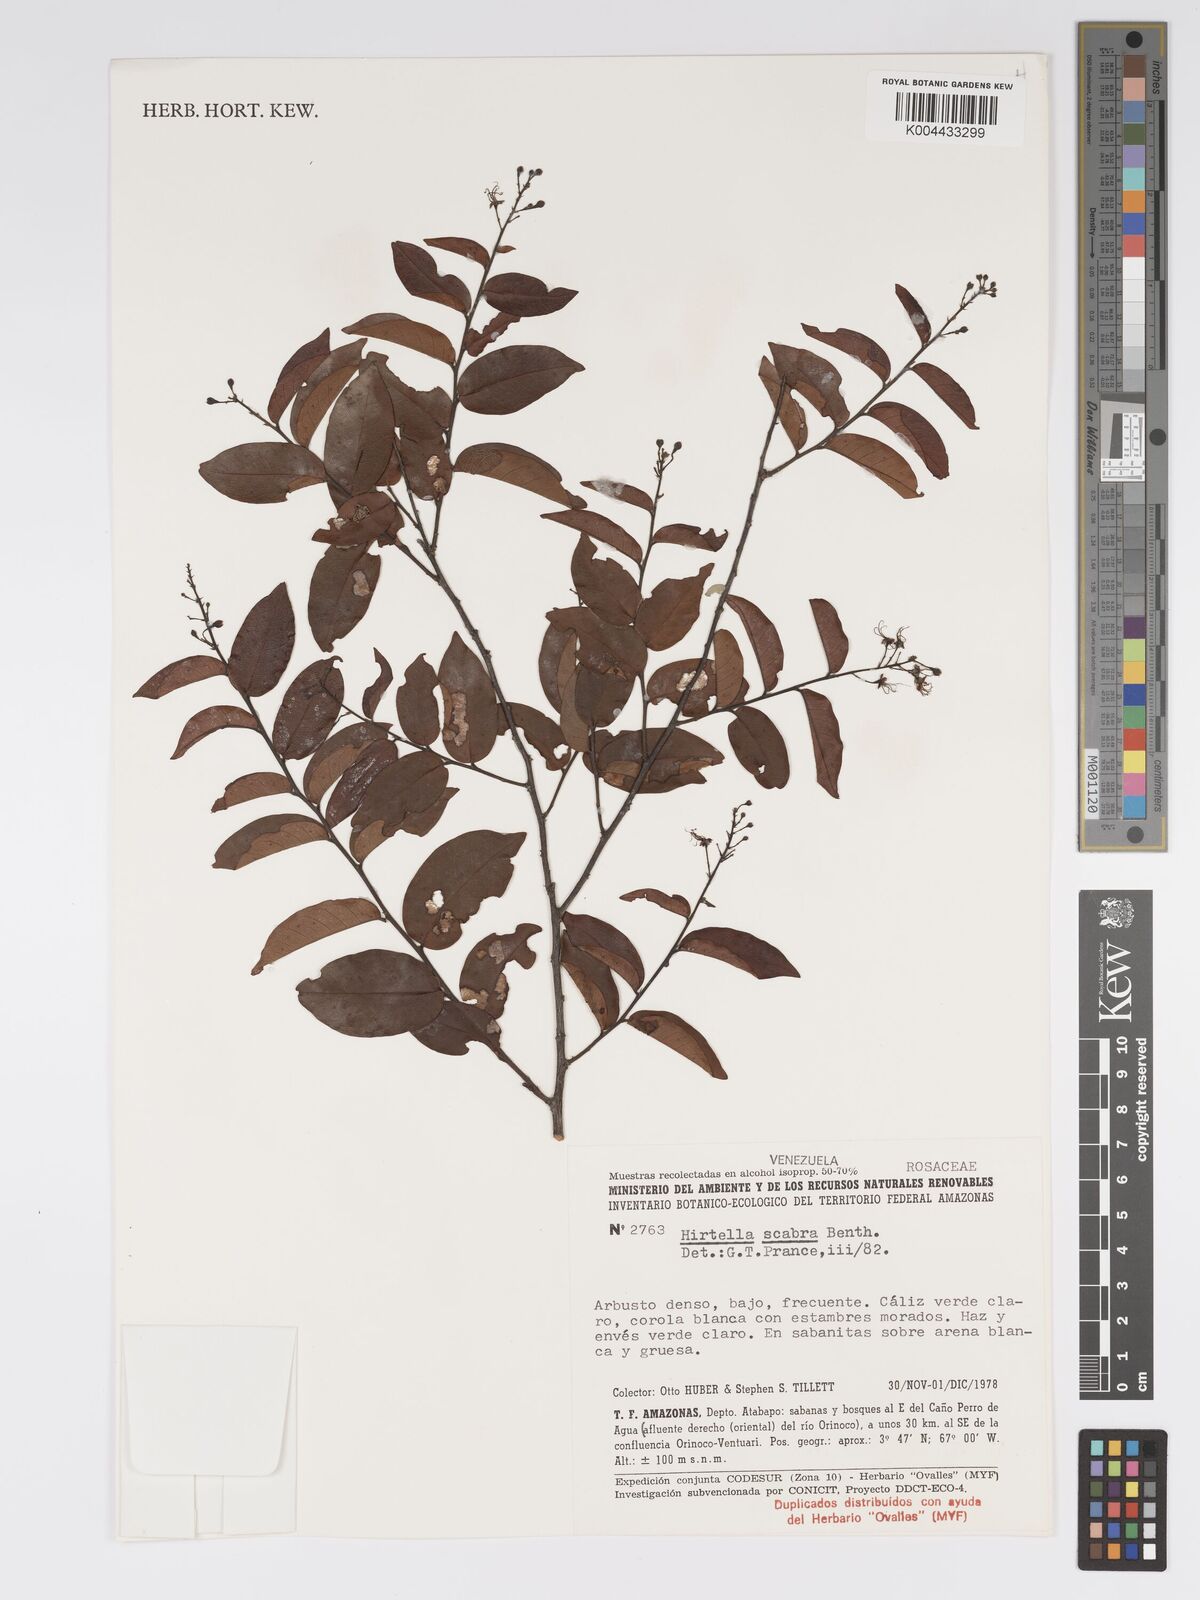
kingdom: Plantae
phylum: Tracheophyta
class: Magnoliopsida
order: Malpighiales
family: Chrysobalanaceae
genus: Hirtella
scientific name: Hirtella scabra
